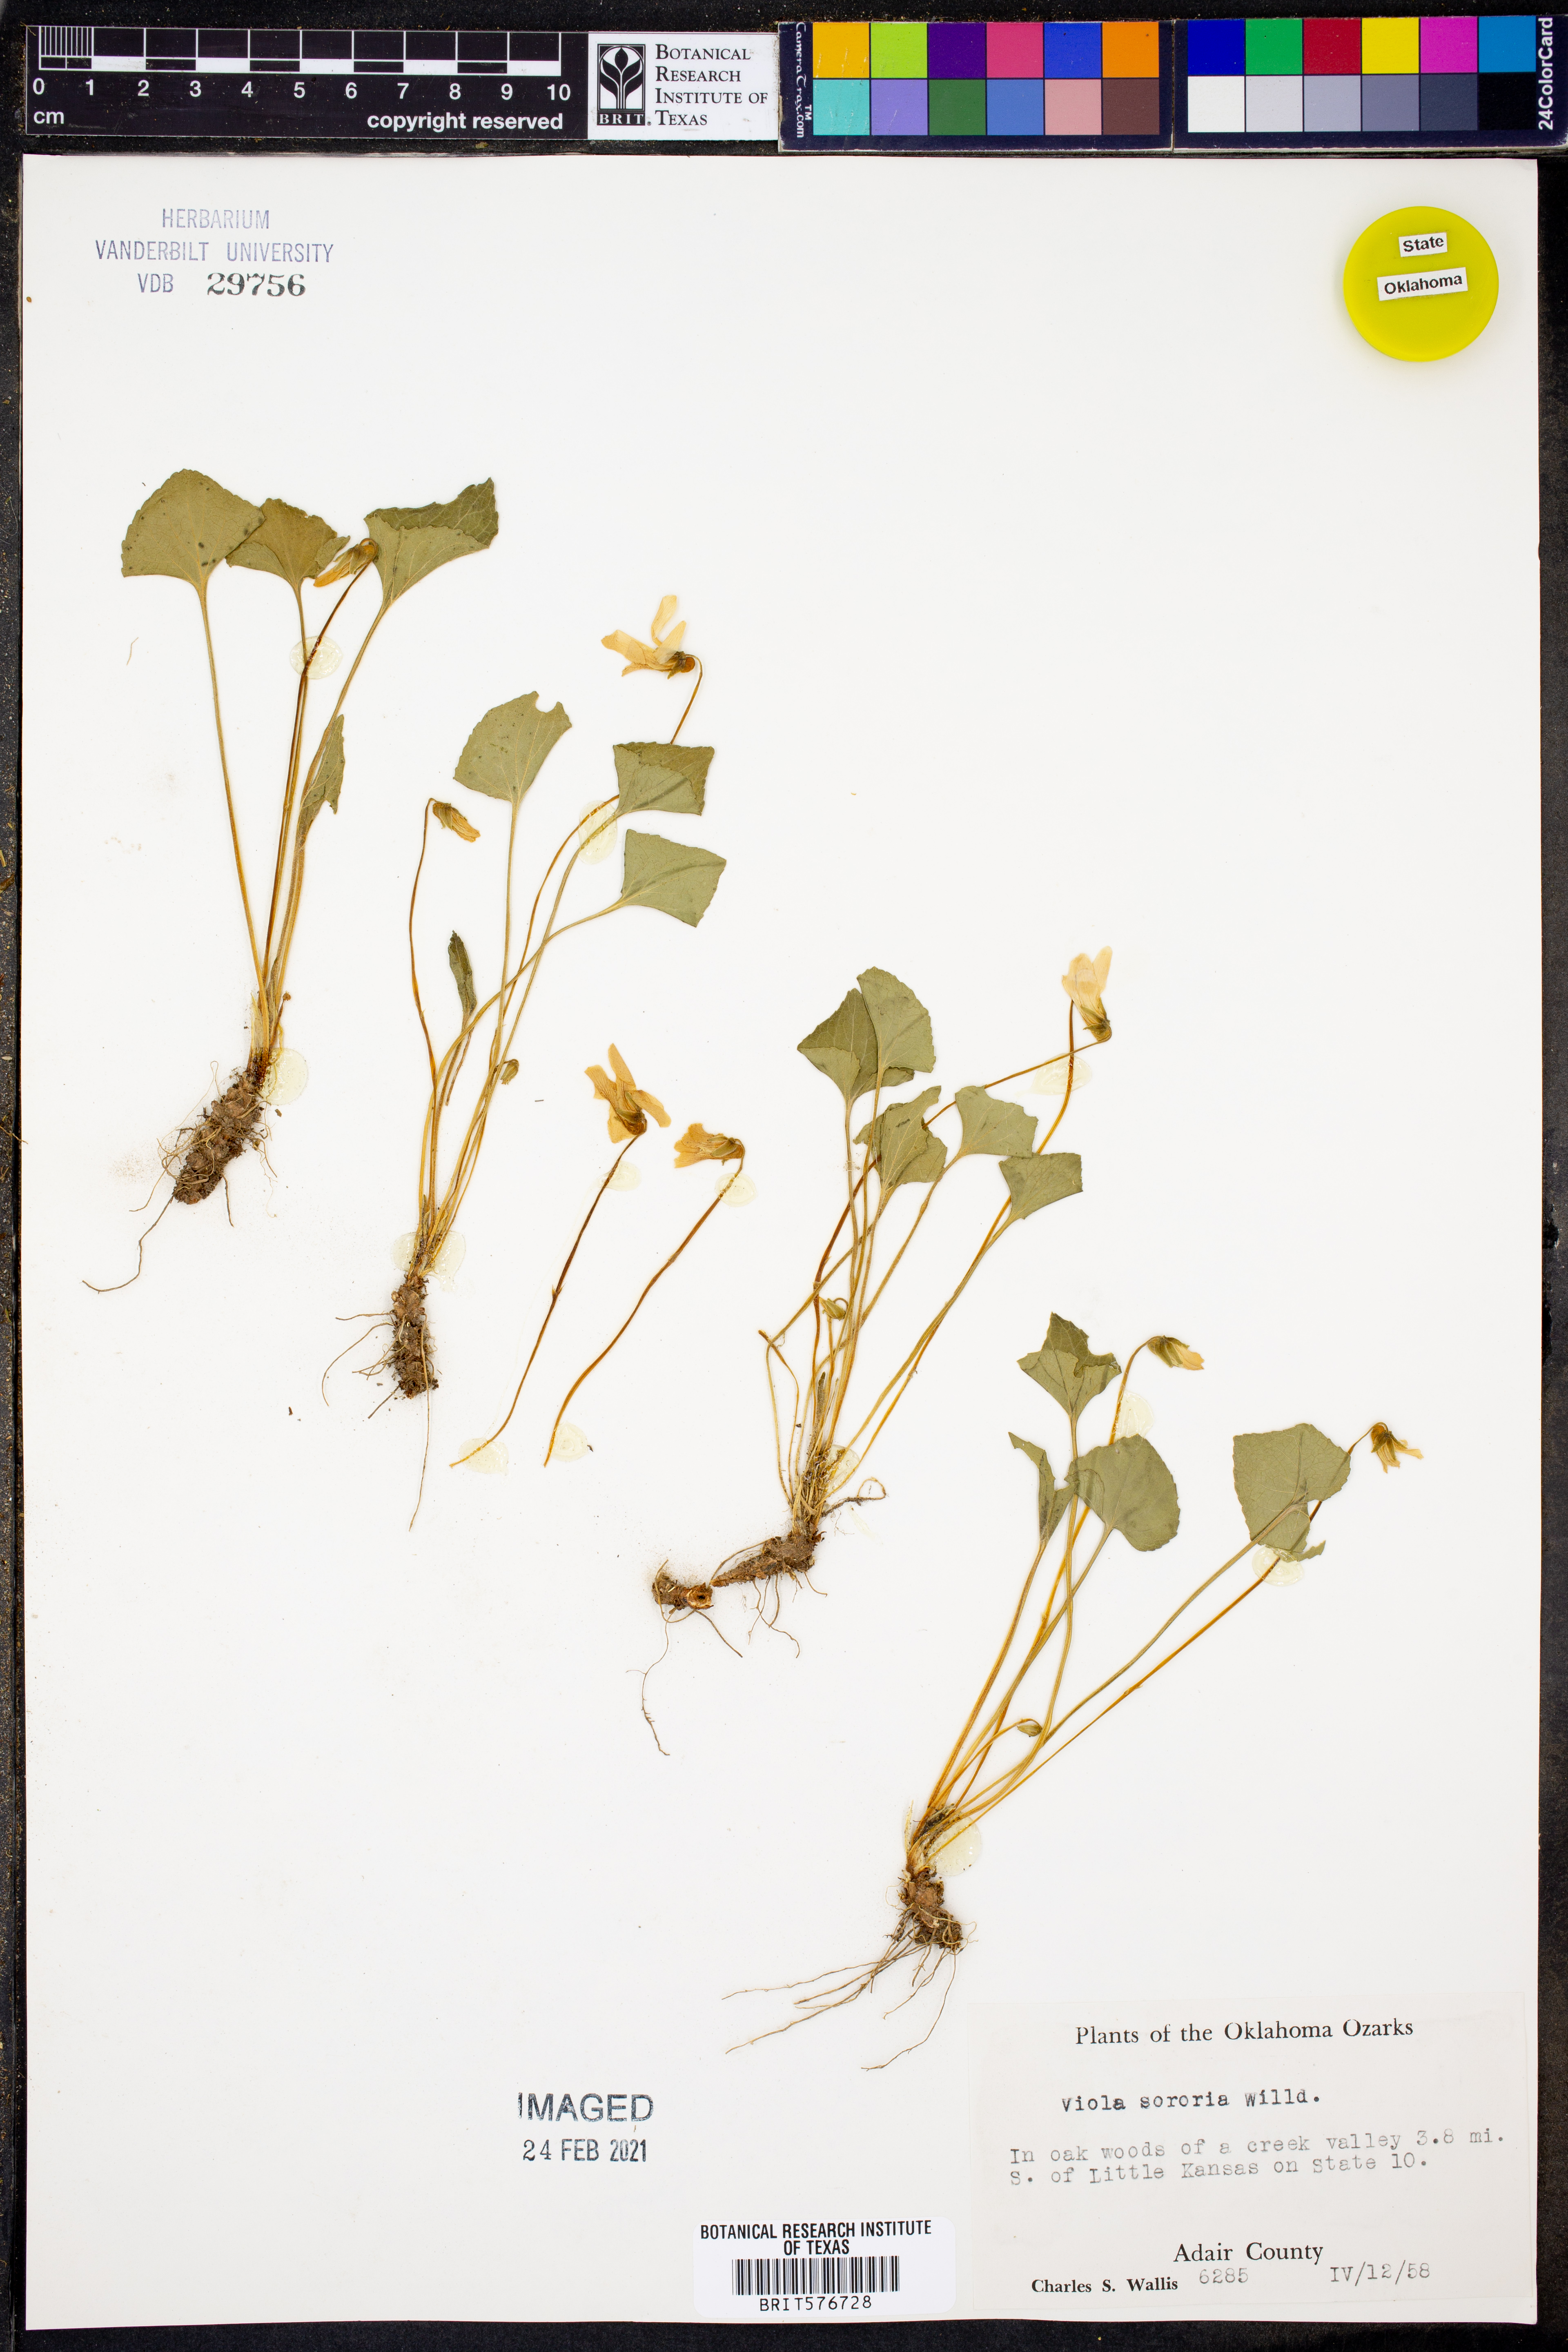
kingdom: Plantae
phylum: Tracheophyta
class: Magnoliopsida
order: Malpighiales
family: Violaceae
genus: Viola
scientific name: Viola sororia
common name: Dooryard violet
